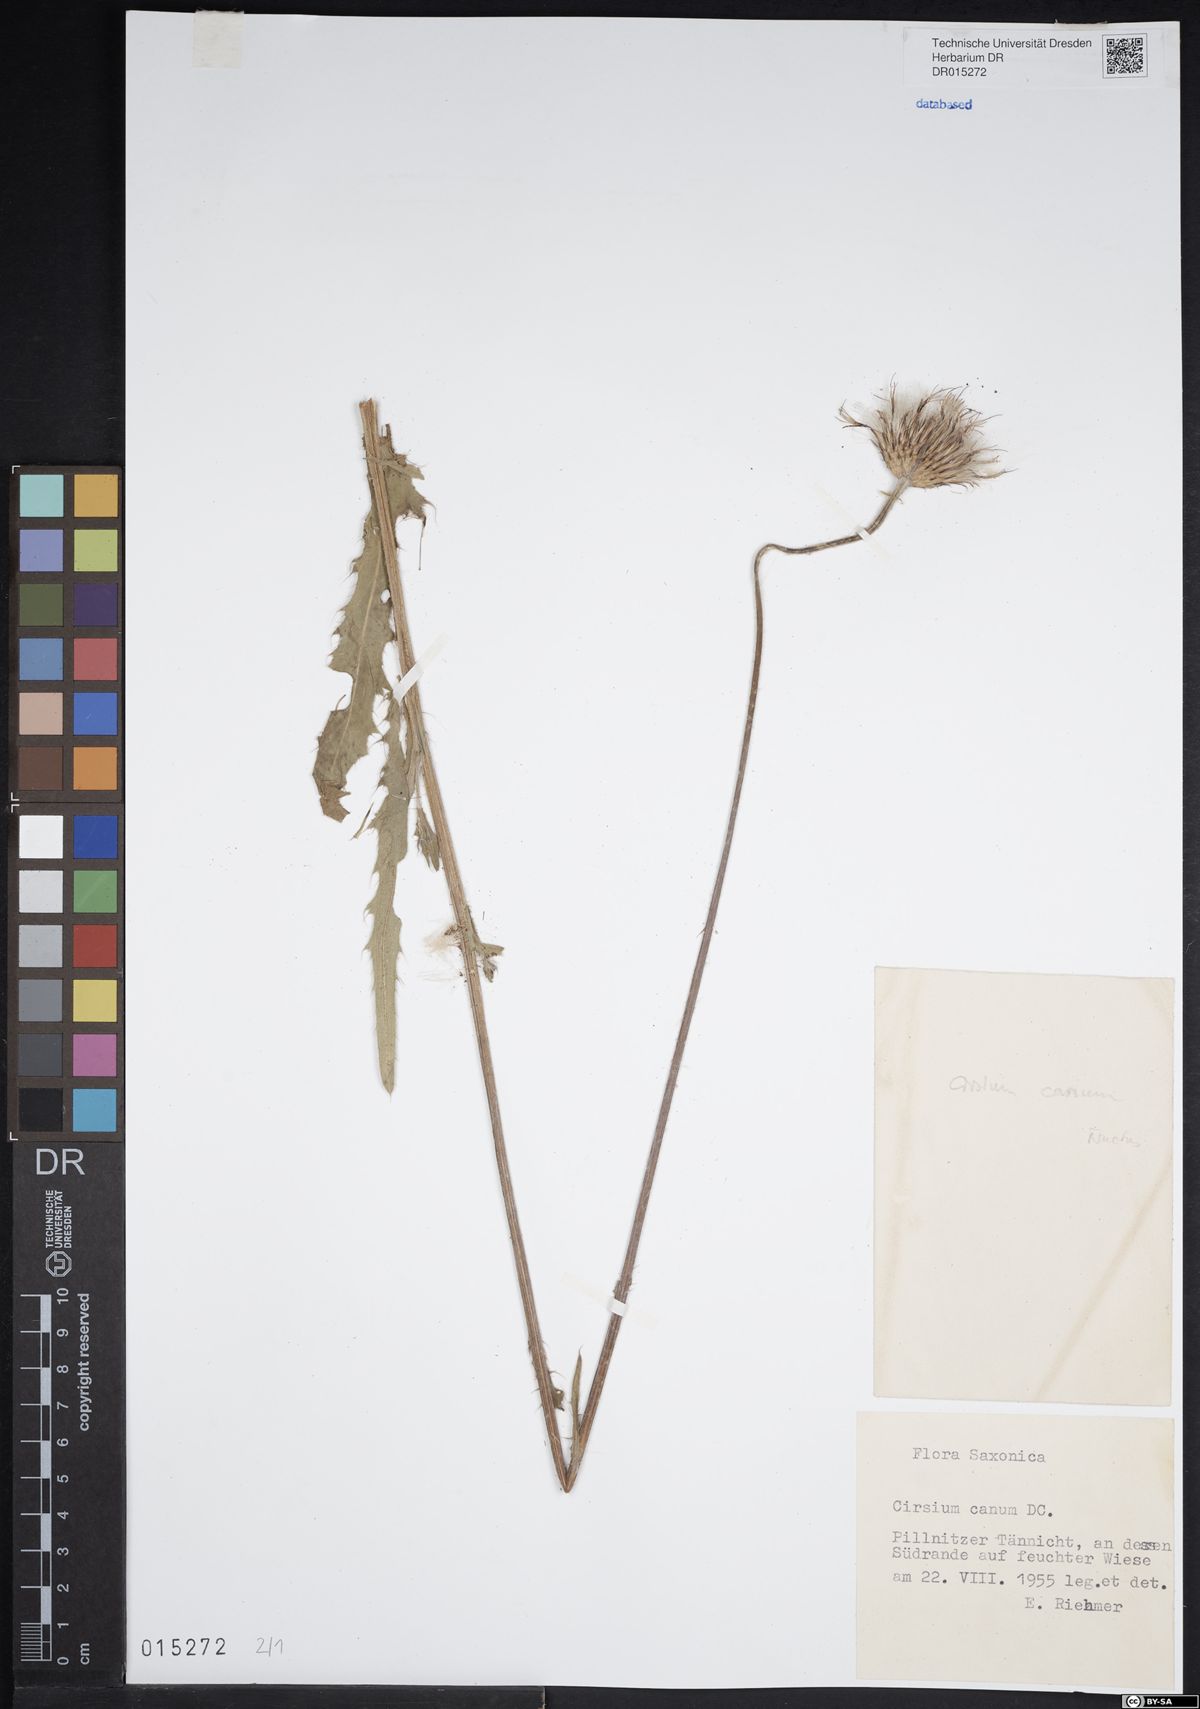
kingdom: Plantae
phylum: Tracheophyta
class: Magnoliopsida
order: Asterales
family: Asteraceae
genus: Cirsium
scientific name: Cirsium tataricum
